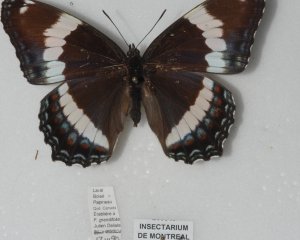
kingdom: Animalia
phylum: Arthropoda
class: Insecta
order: Lepidoptera
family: Nymphalidae
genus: Limenitis
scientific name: Limenitis arthemis
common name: Red-spotted Admiral
